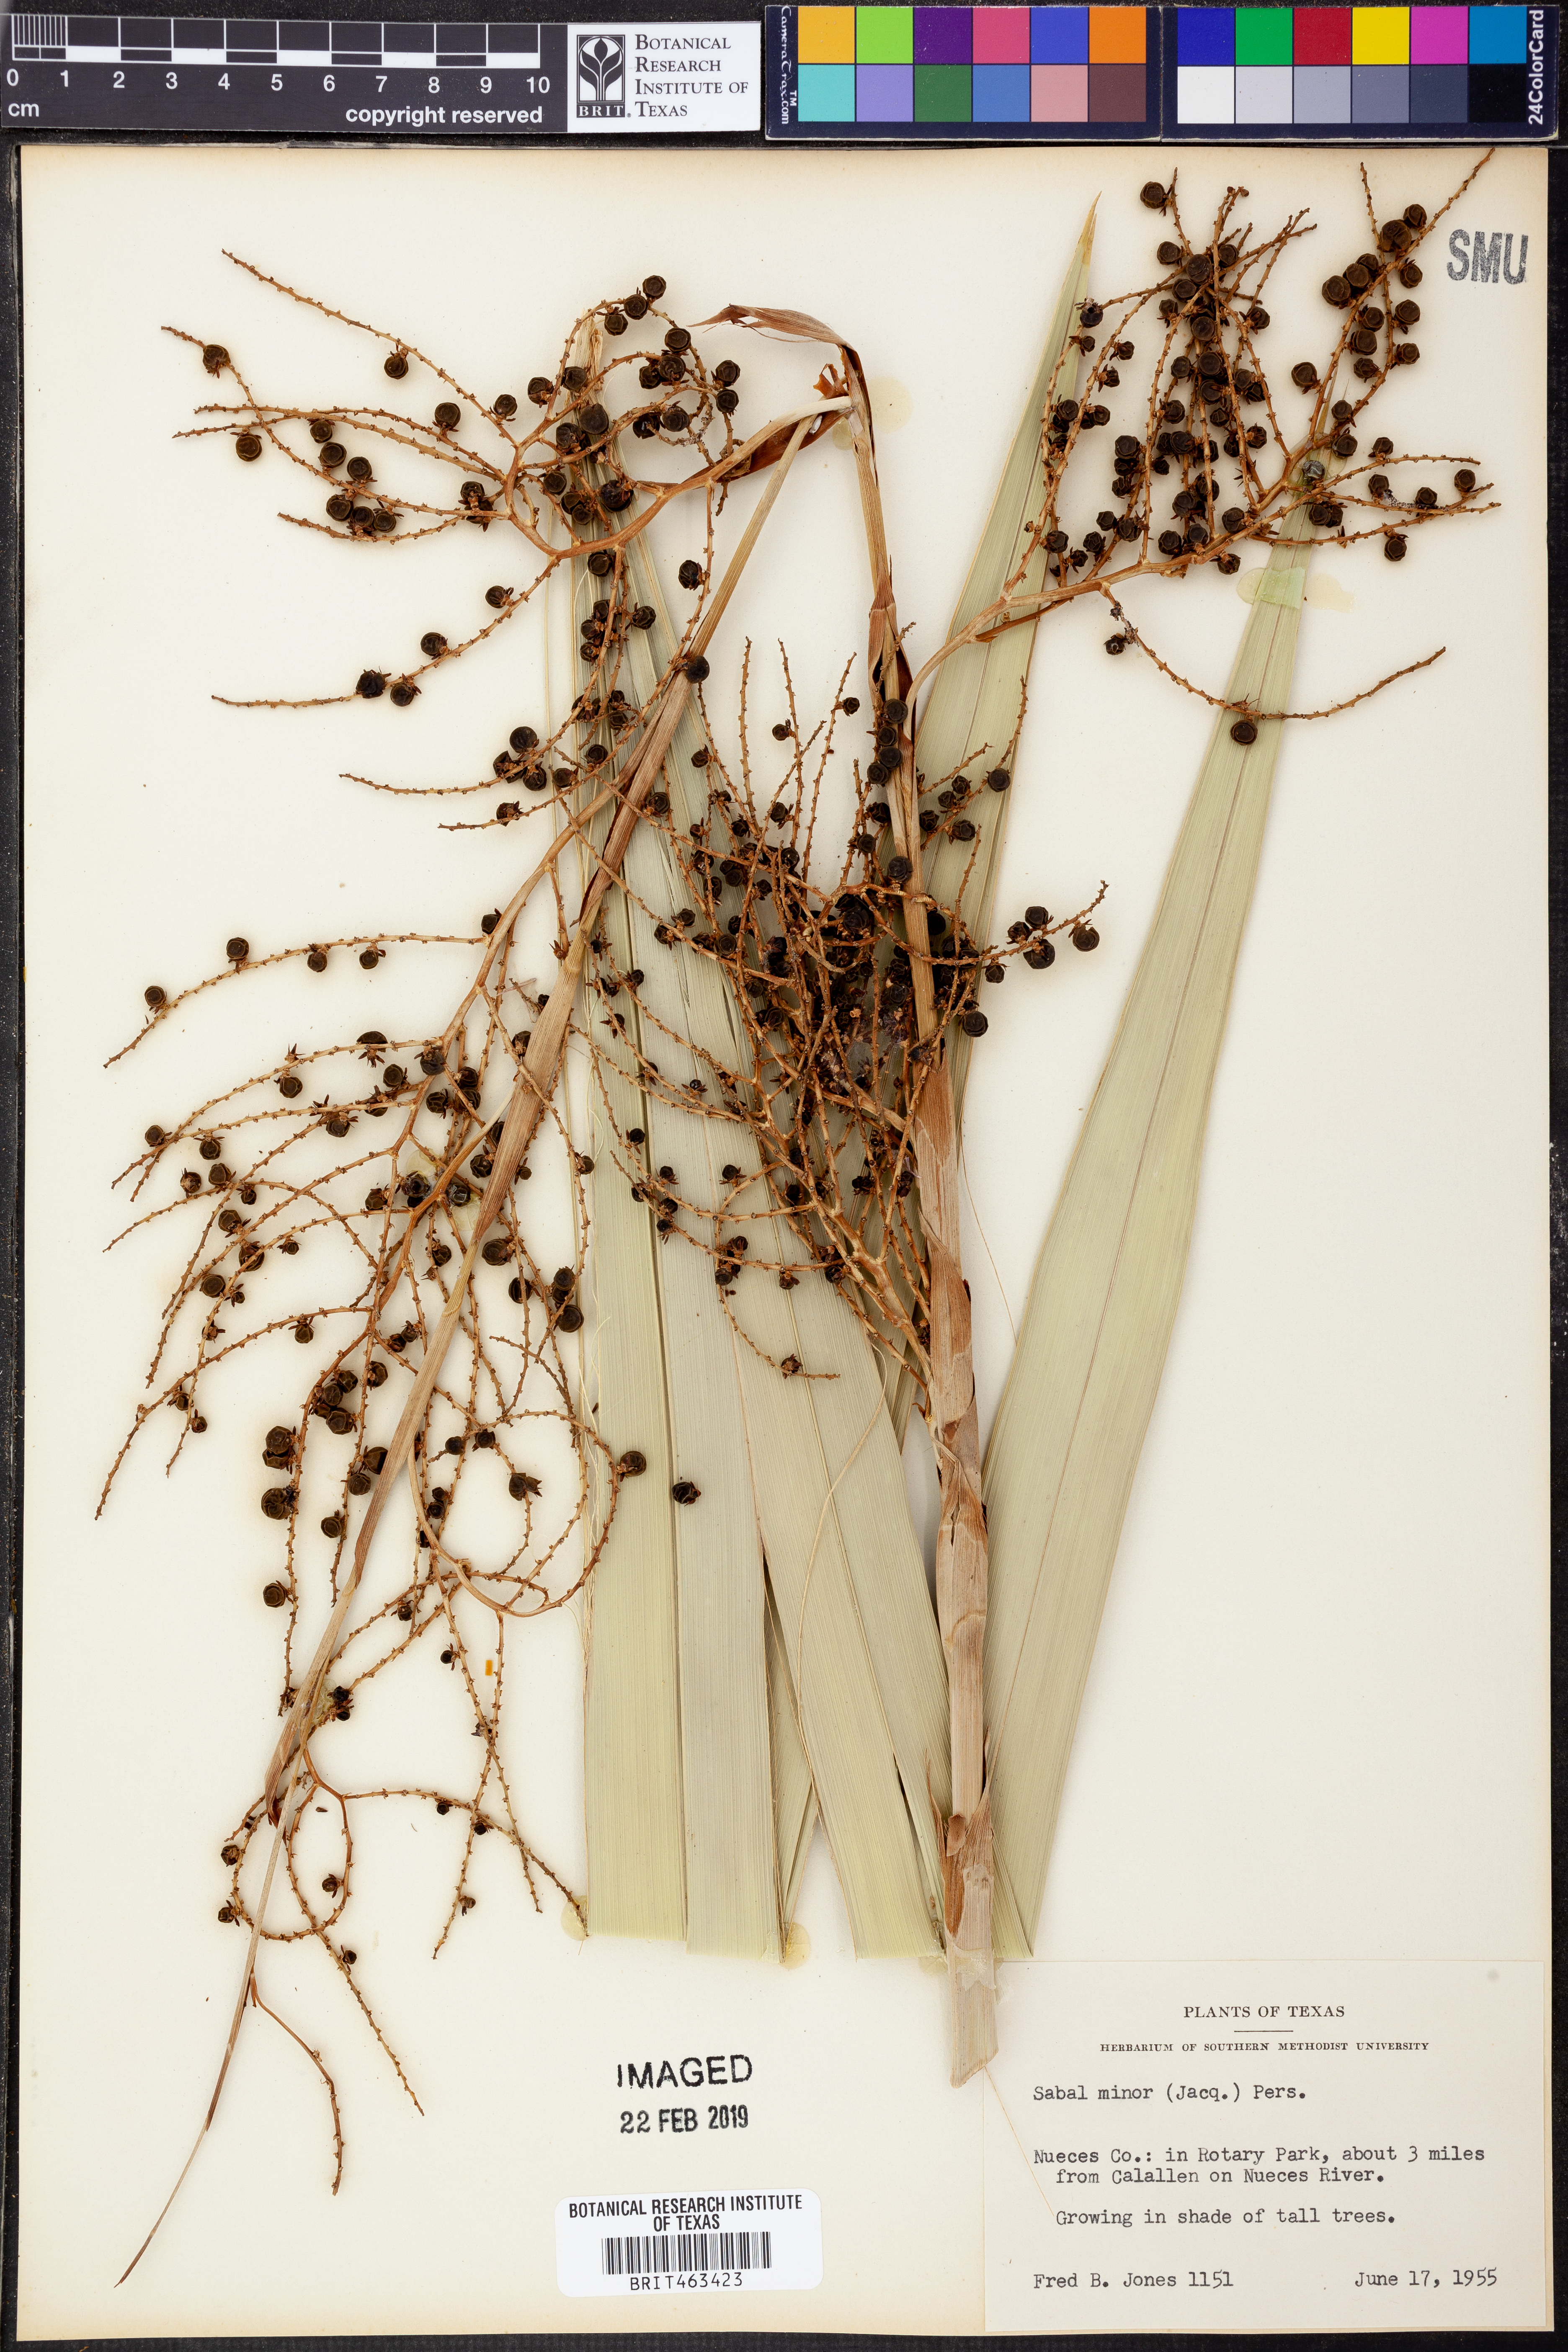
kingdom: Plantae
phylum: Tracheophyta
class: Liliopsida
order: Arecales
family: Arecaceae
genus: Sabal
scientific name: Sabal minor
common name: Dwarf palmetto
